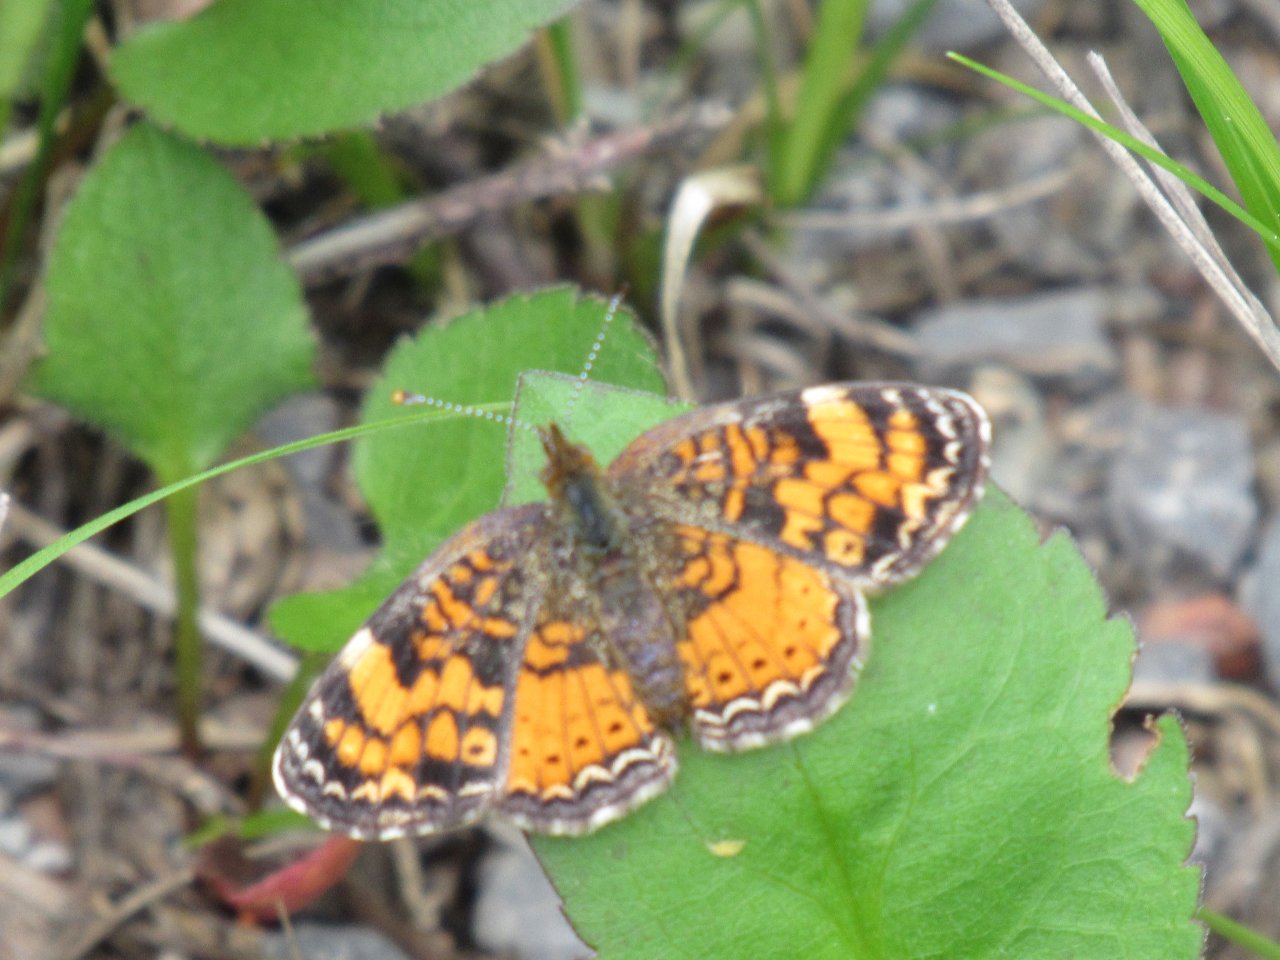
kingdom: Animalia
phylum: Arthropoda
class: Insecta
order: Lepidoptera
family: Nymphalidae
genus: Phyciodes
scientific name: Phyciodes tharos
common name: Northern Crescent
